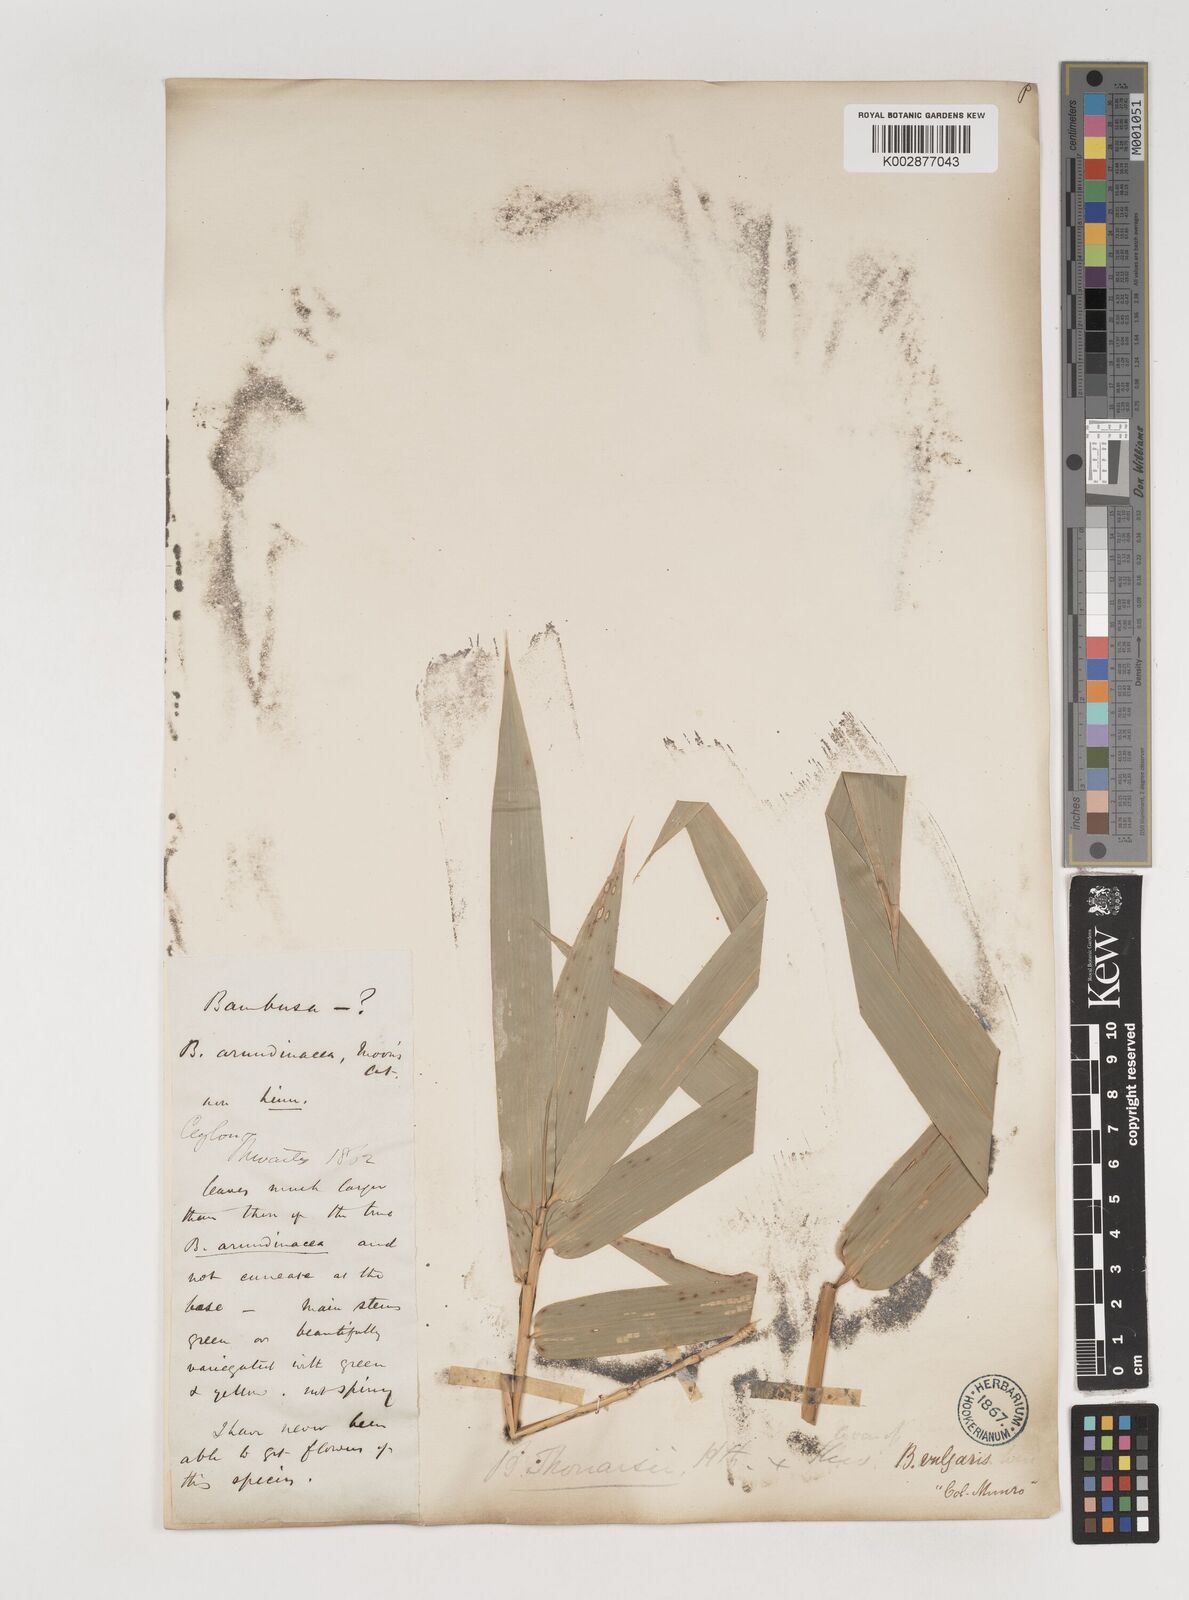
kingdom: Plantae
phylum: Tracheophyta
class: Liliopsida
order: Poales
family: Poaceae
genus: Bambusa
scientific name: Bambusa vulgaris
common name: Common bamboo
